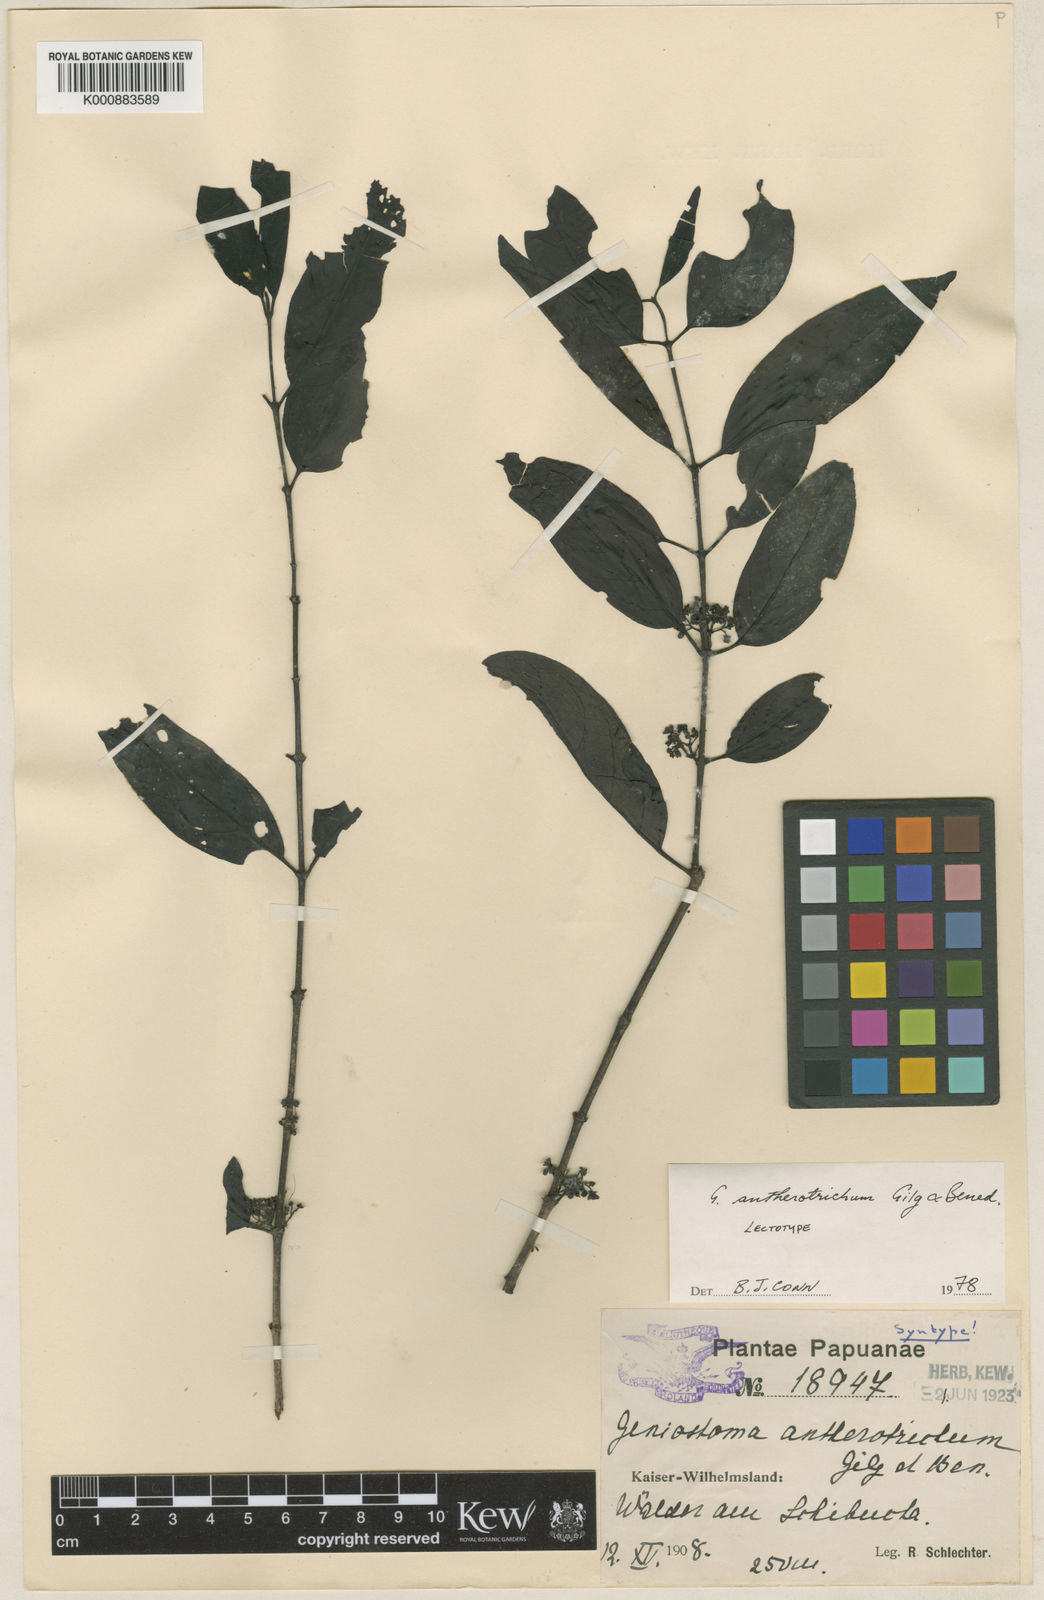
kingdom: Plantae
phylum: Tracheophyta
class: Magnoliopsida
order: Gentianales
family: Loganiaceae
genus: Geniostoma
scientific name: Geniostoma antherotrichum
